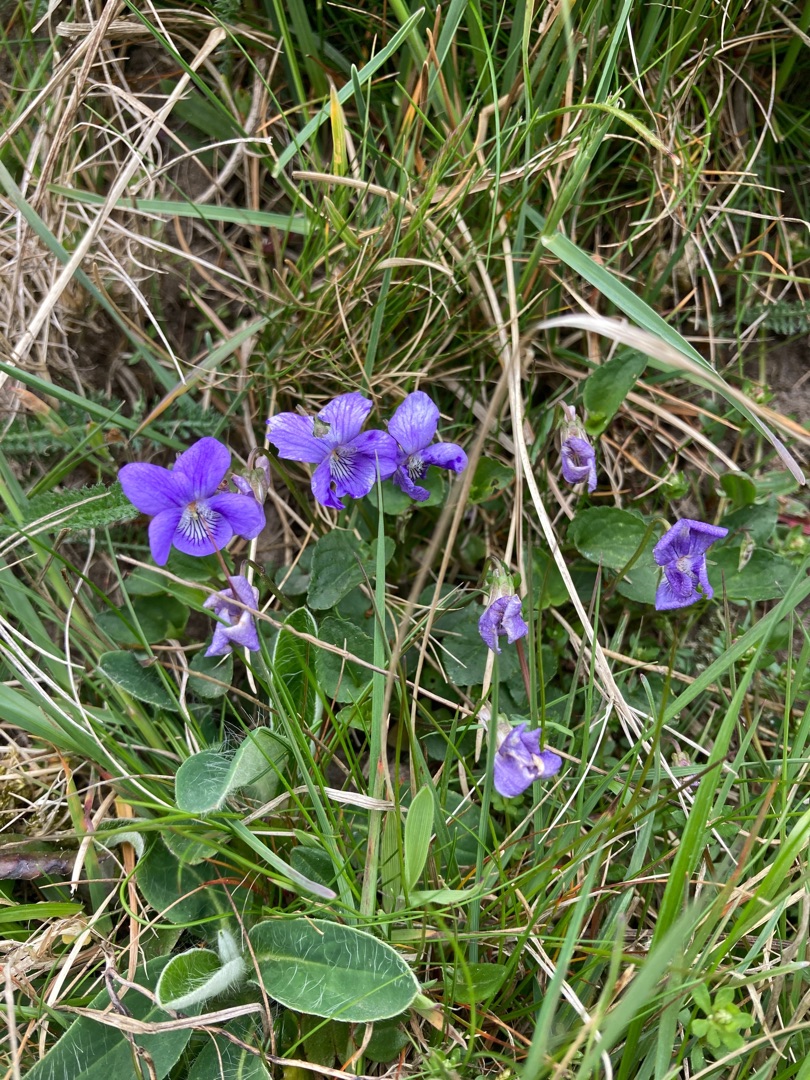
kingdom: Plantae
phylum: Tracheophyta
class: Magnoliopsida
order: Malpighiales
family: Violaceae
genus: Viola
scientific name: Viola canina
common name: Hunde-viol
